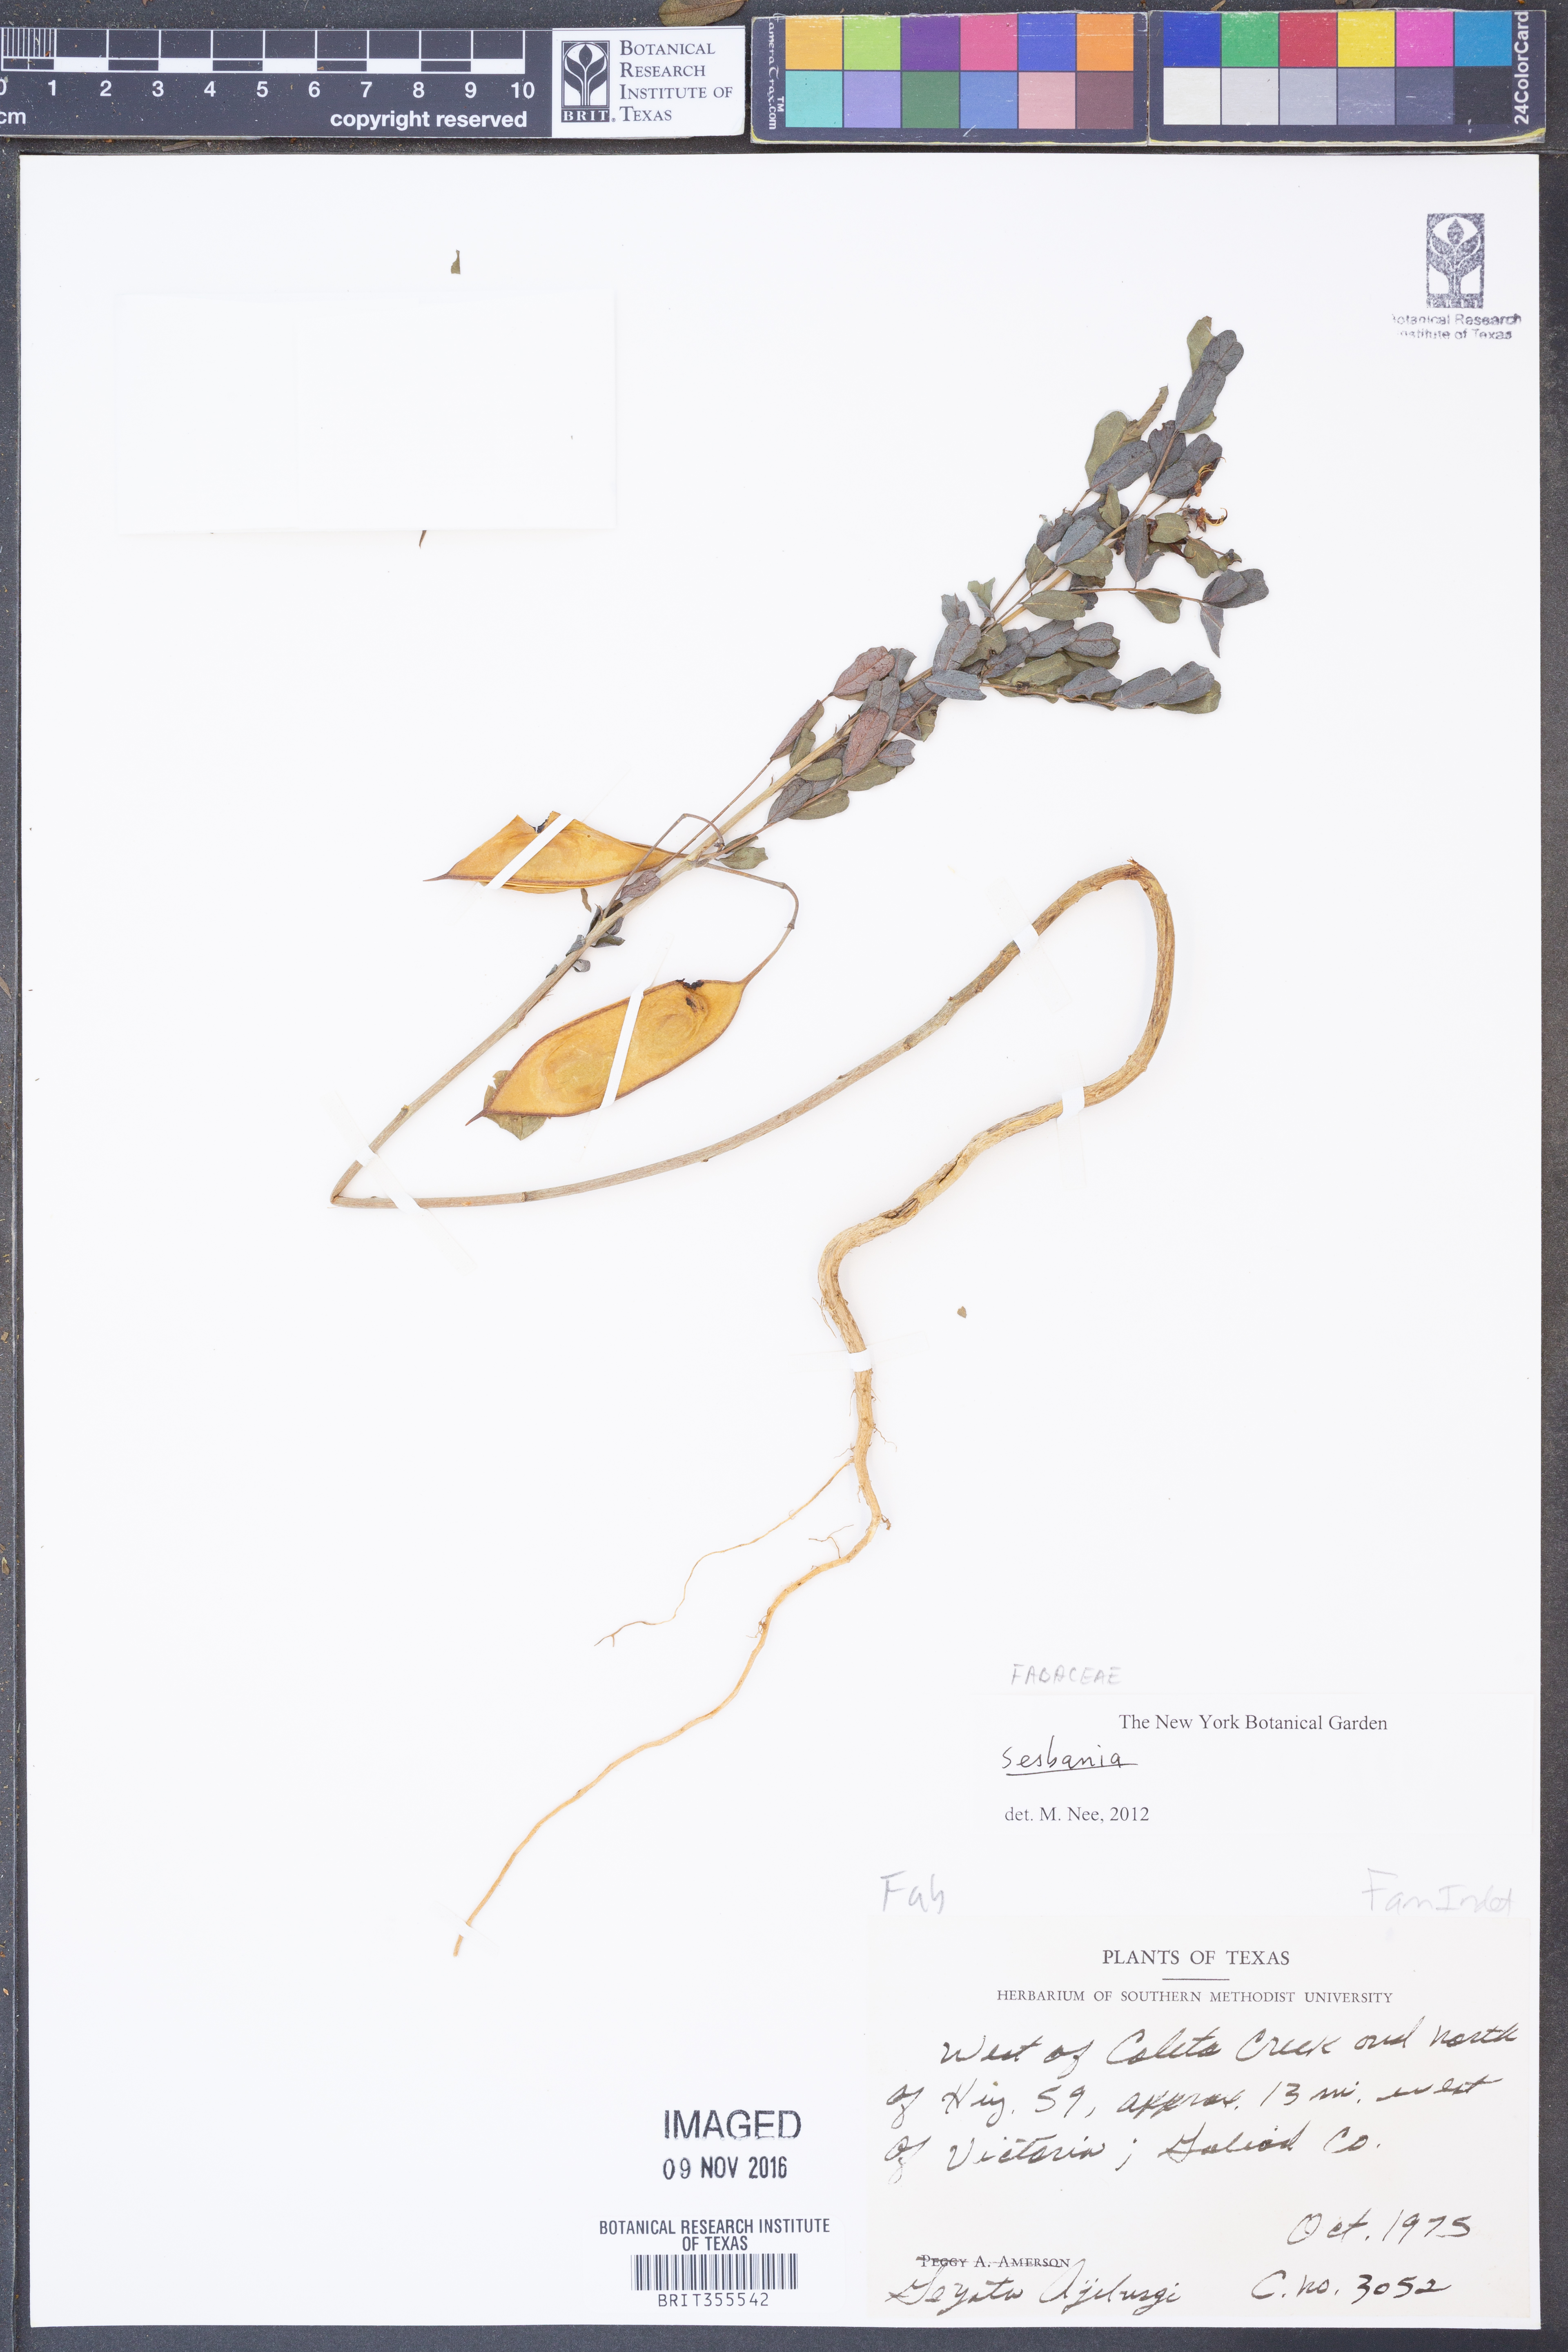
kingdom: Plantae
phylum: Tracheophyta
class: Magnoliopsida
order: Fabales
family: Fabaceae
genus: Sesbania
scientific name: Sesbania
